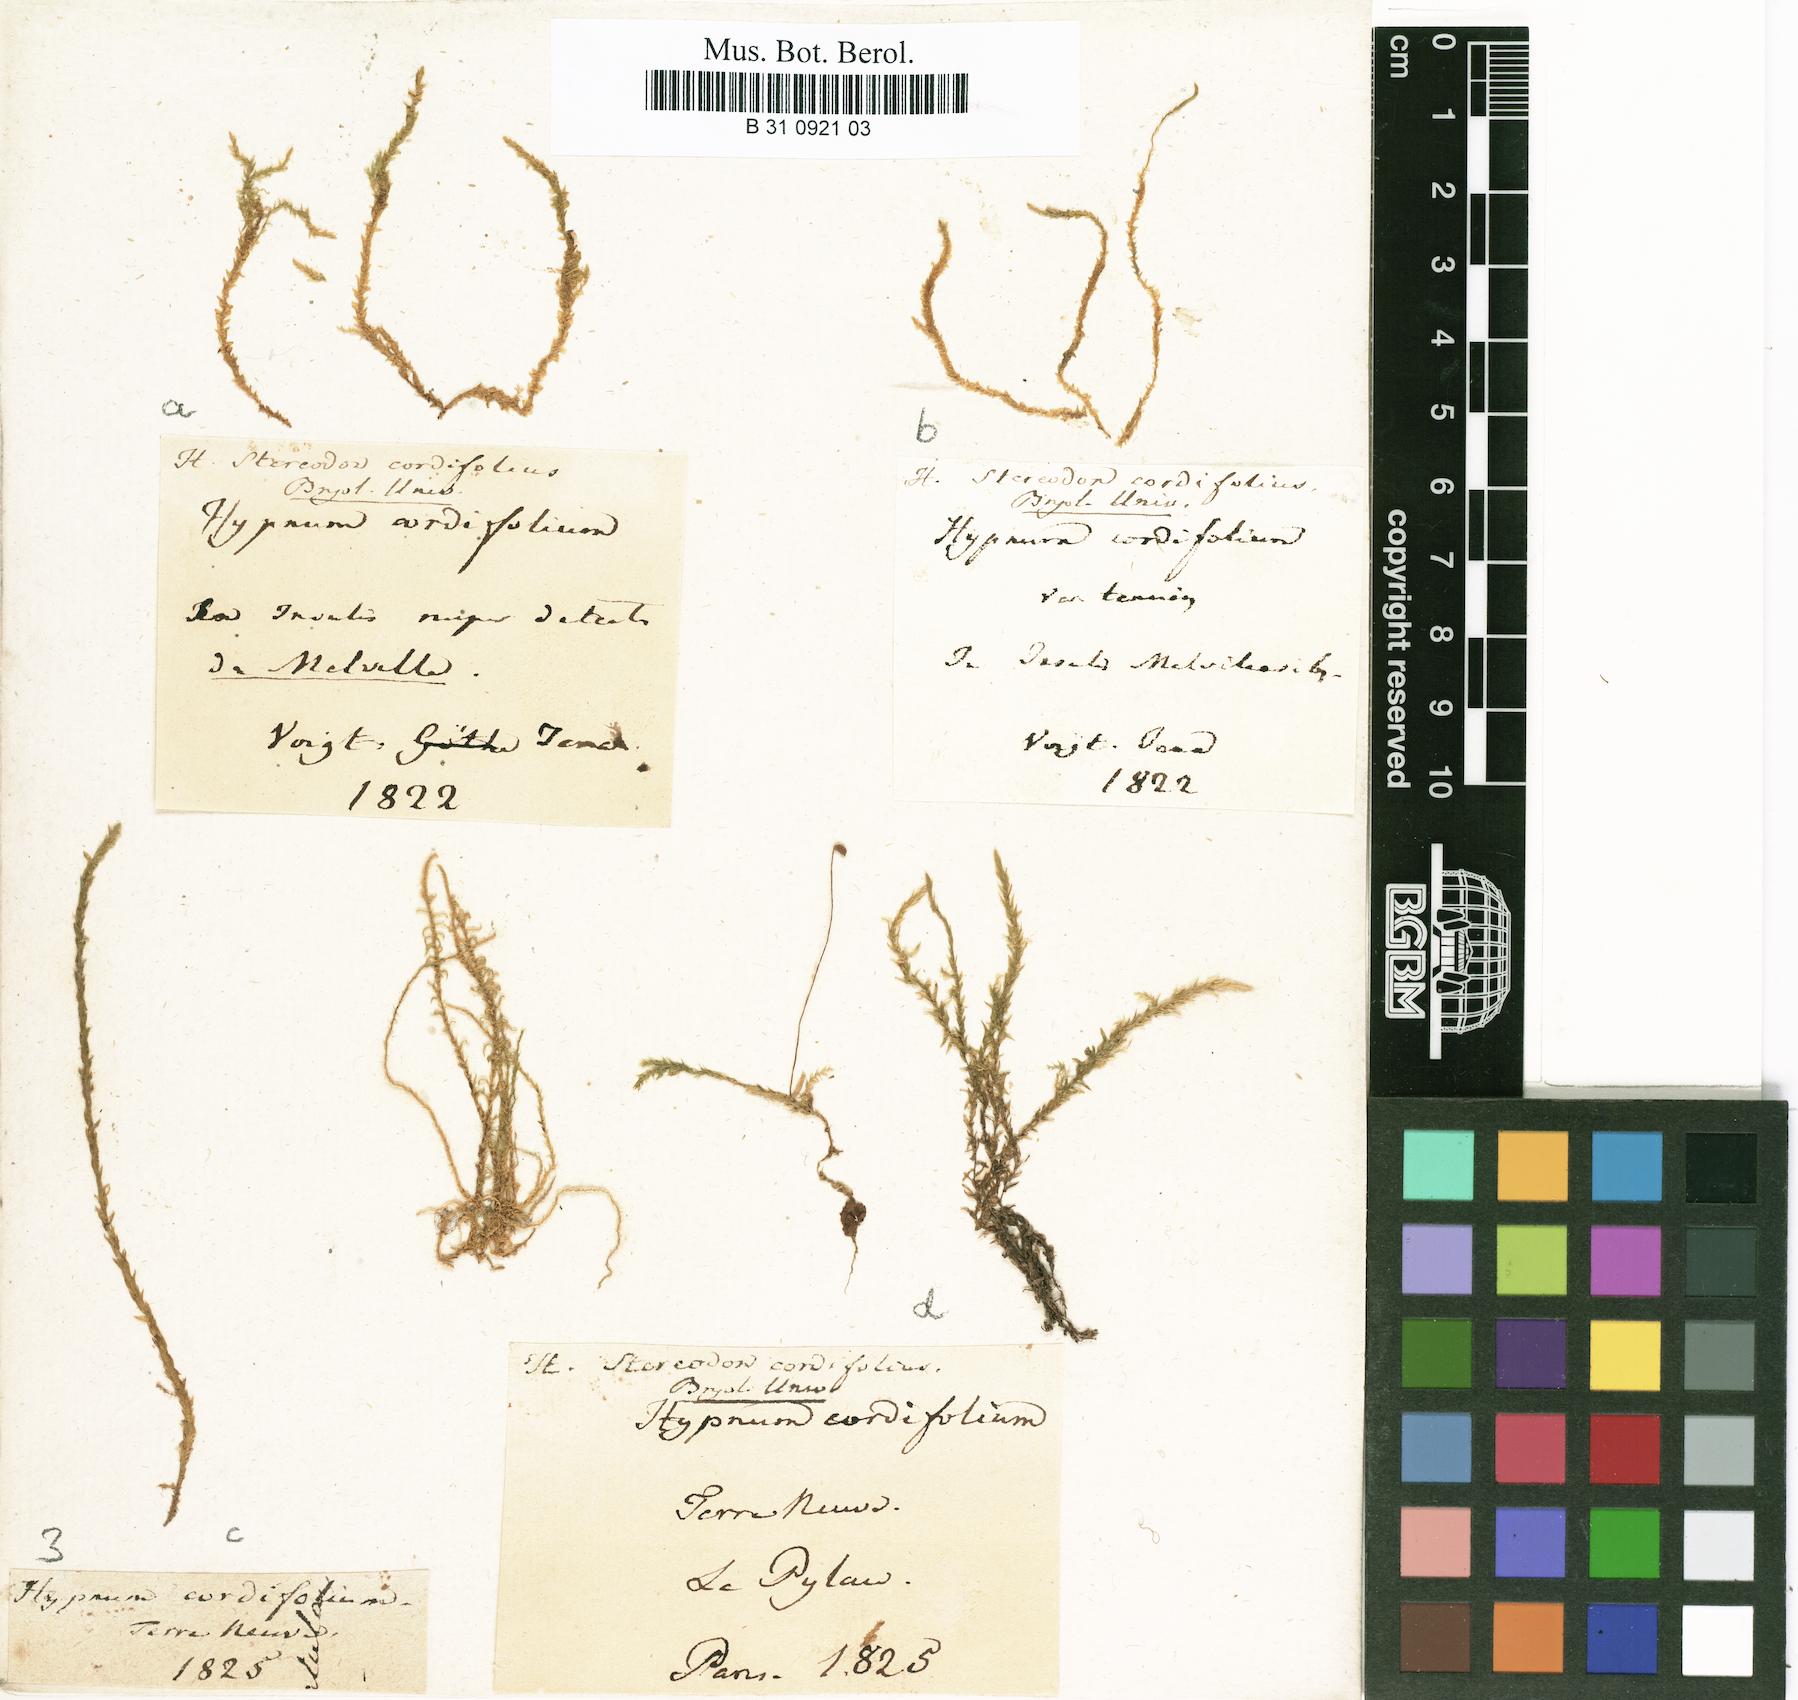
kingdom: Plantae
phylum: Bryophyta
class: Bryopsida
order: Hypnales
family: Calliergonaceae
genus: Calliergon
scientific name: Calliergon cordifolium
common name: Heart-leaved spear moss
